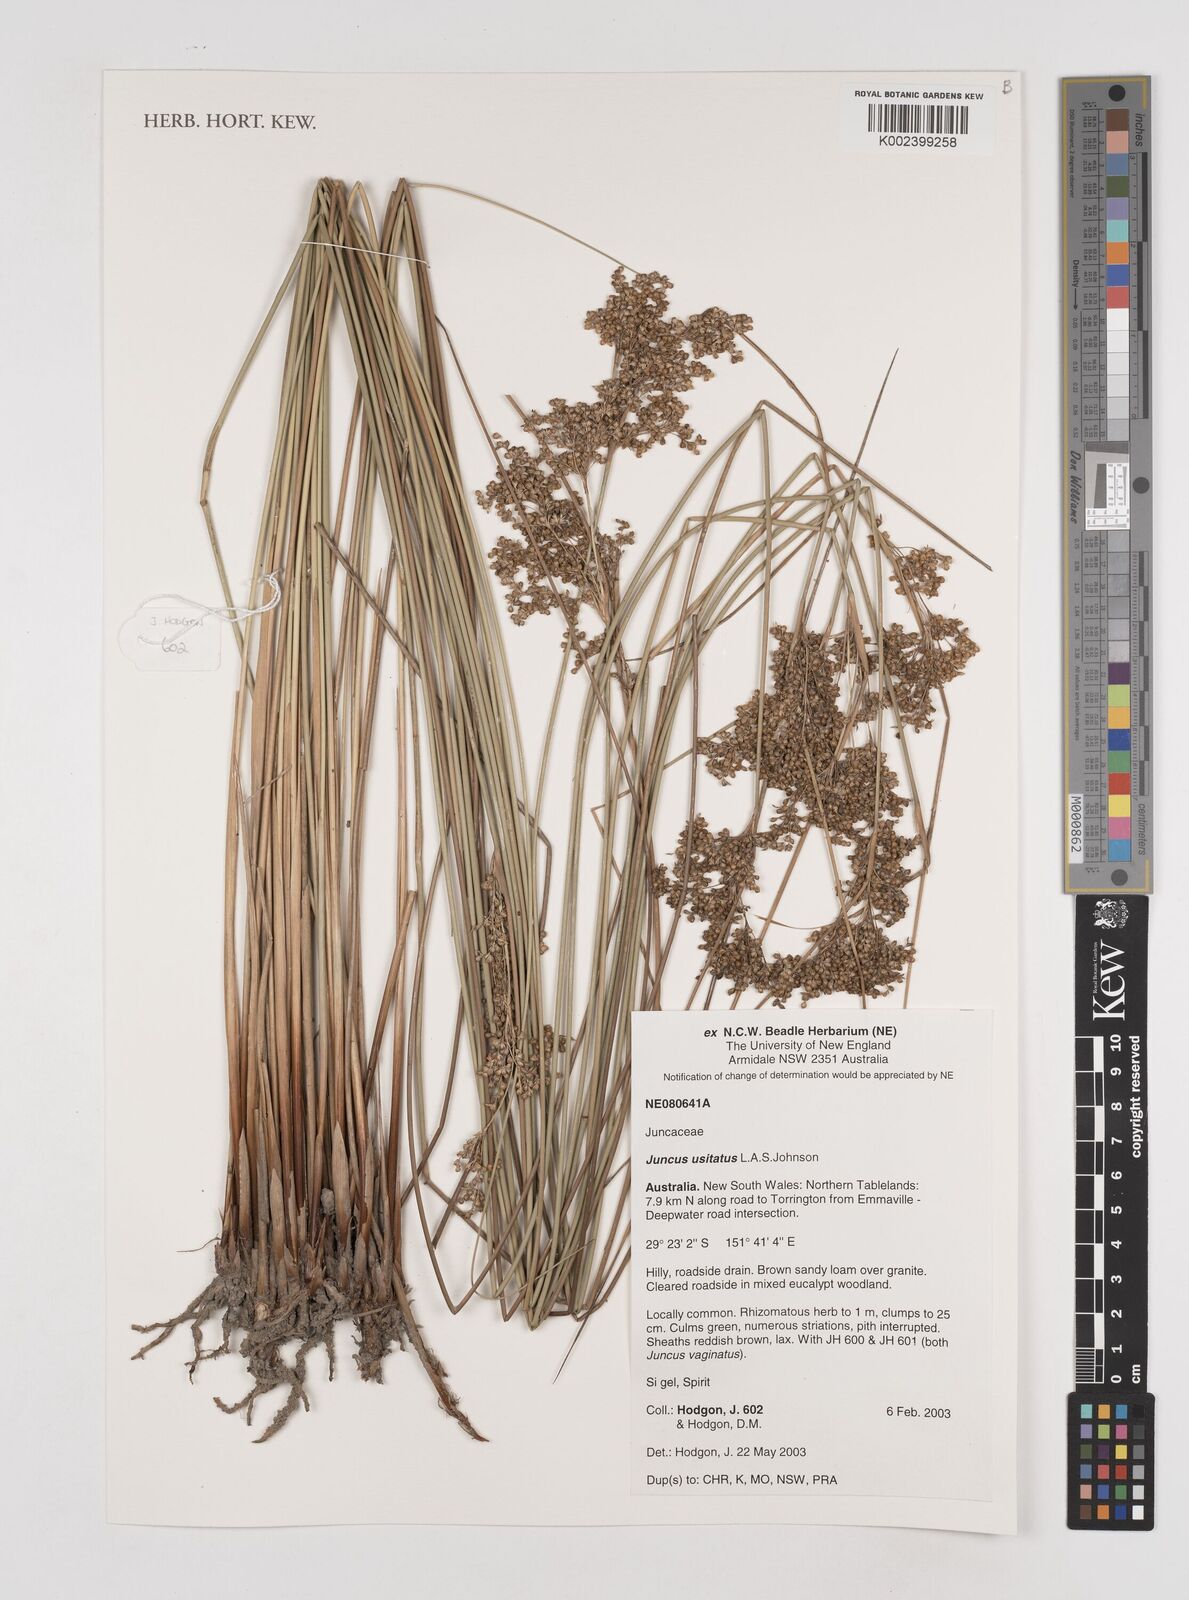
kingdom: Plantae
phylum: Tracheophyta
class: Liliopsida
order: Poales
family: Juncaceae
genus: Juncus
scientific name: Juncus usitatus
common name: Rush
